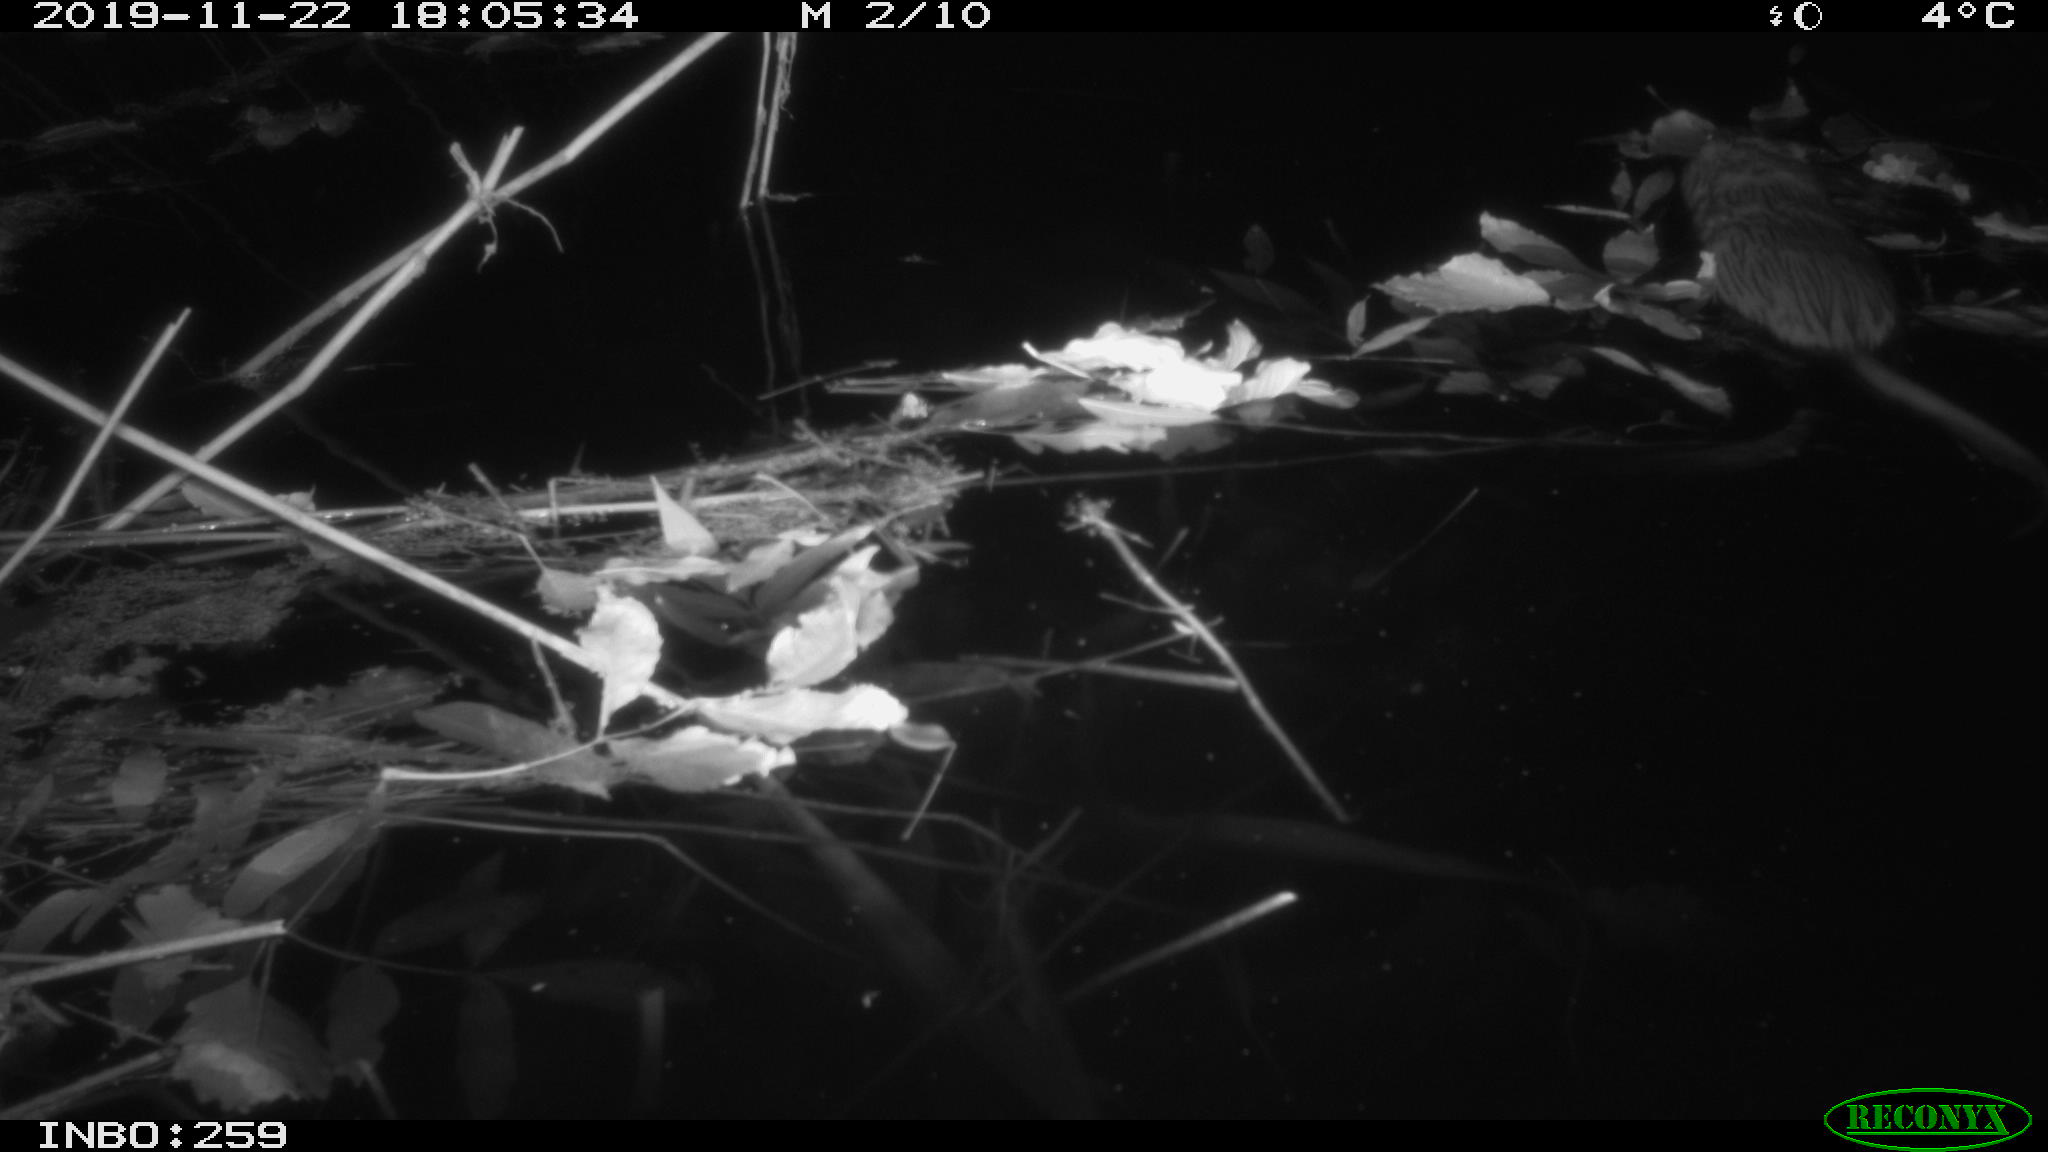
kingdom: Animalia
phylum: Chordata
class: Mammalia
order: Rodentia
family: Cricetidae
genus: Ondatra
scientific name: Ondatra zibethicus
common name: Muskrat
